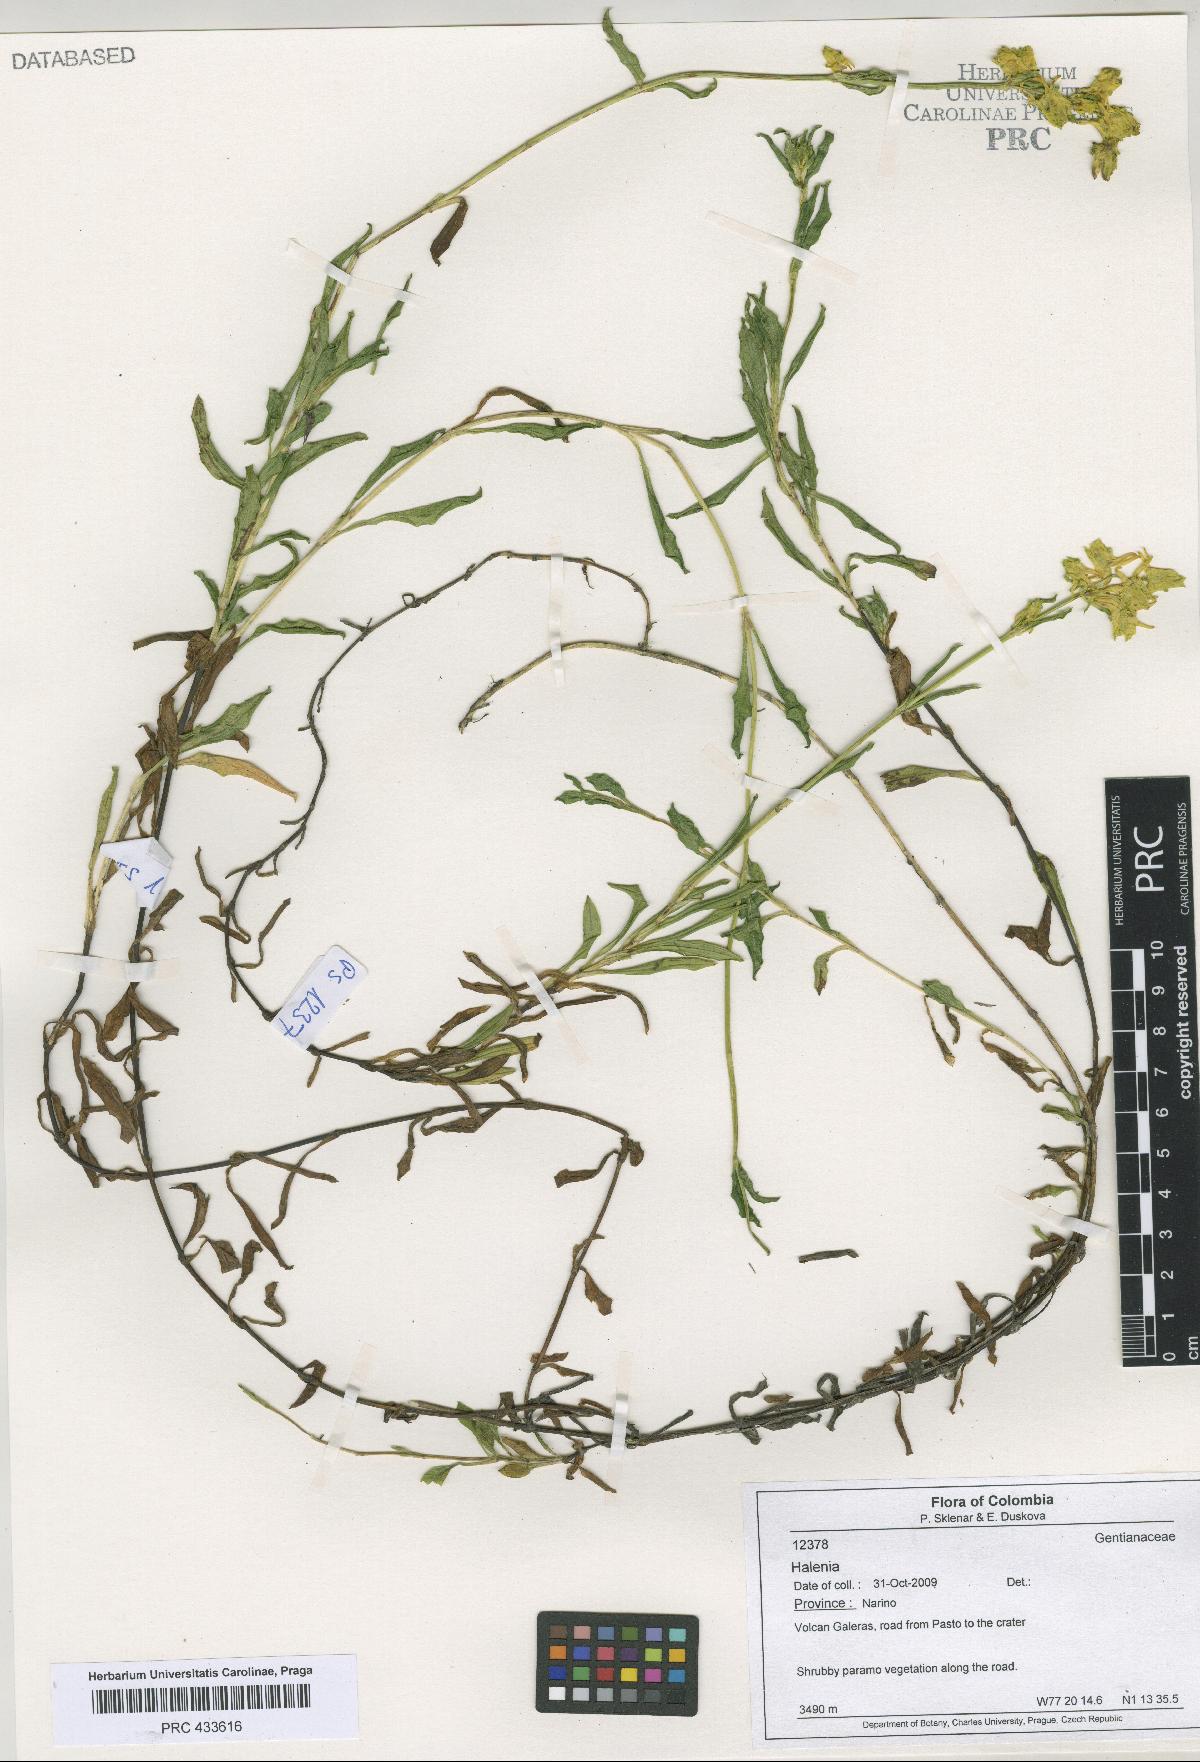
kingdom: Plantae
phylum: Tracheophyta
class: Magnoliopsida
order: Gentianales
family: Gentianaceae
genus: Halenia
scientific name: Halenia
